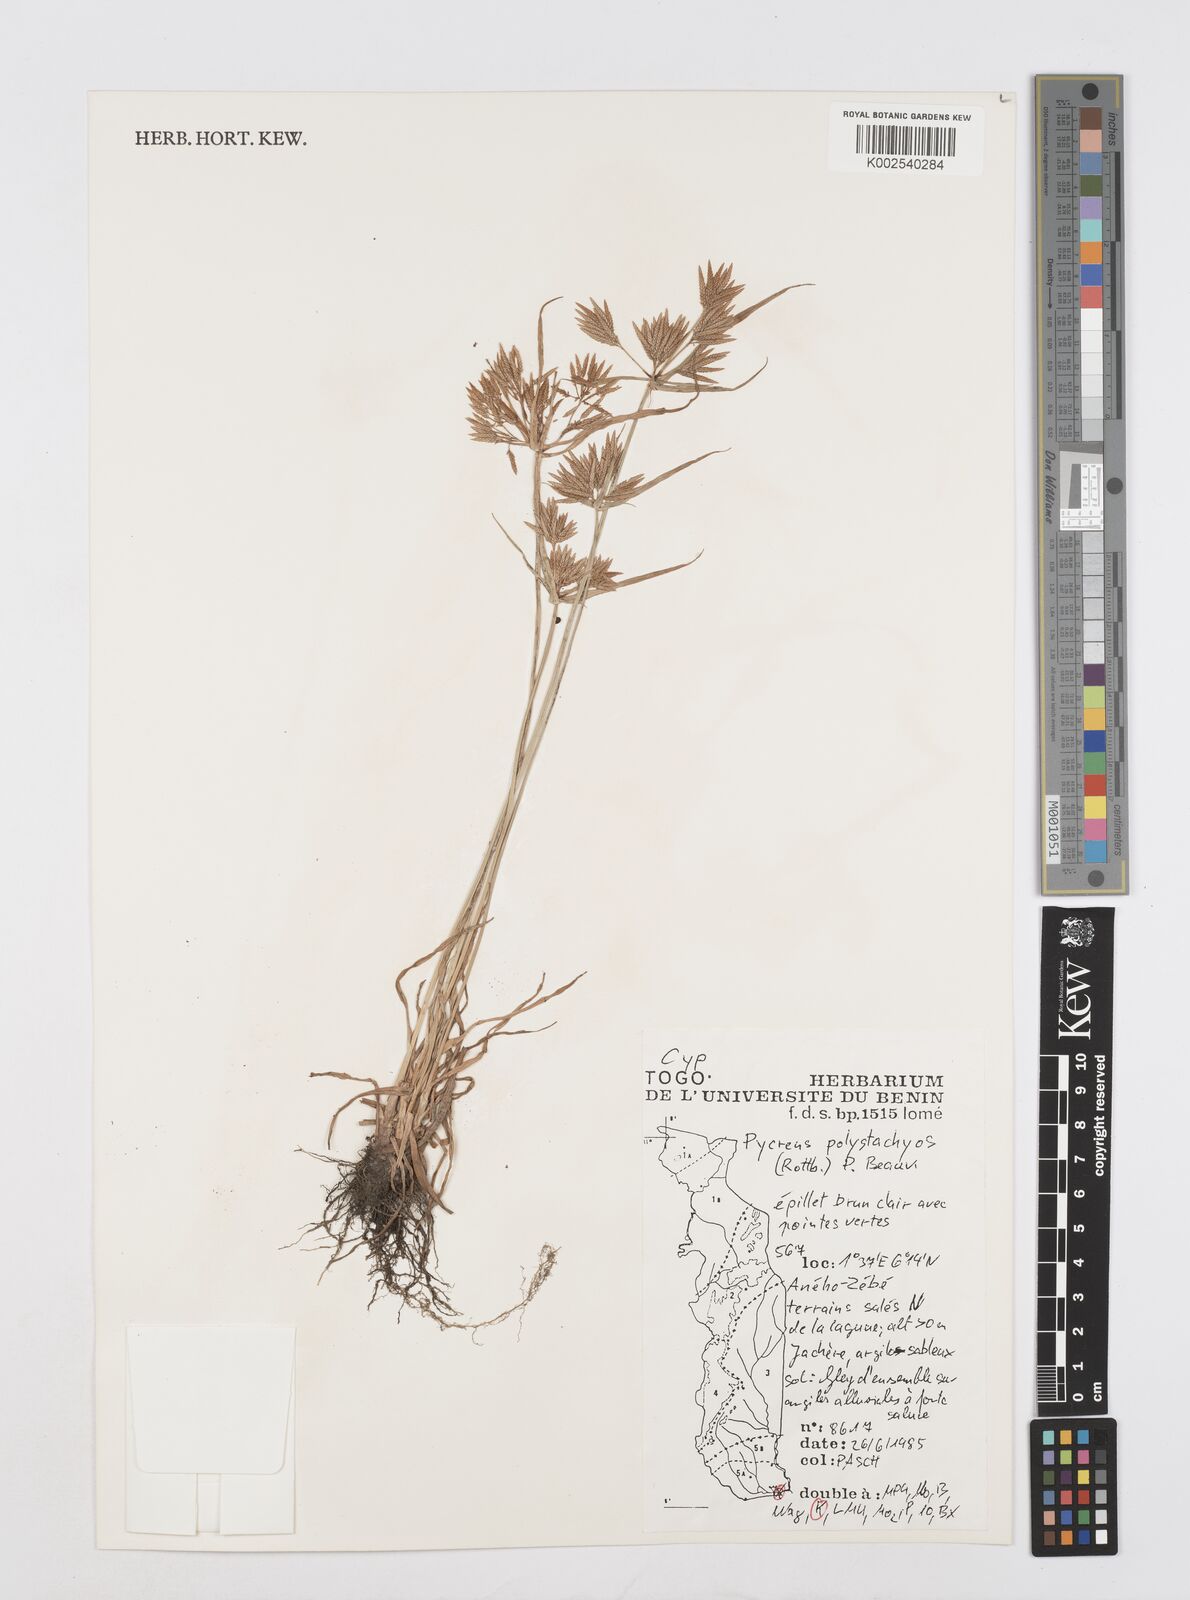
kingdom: Plantae
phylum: Tracheophyta
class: Liliopsida
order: Poales
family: Cyperaceae
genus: Cyperus
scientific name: Cyperus polystachyos
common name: Bunchy flat sedge
